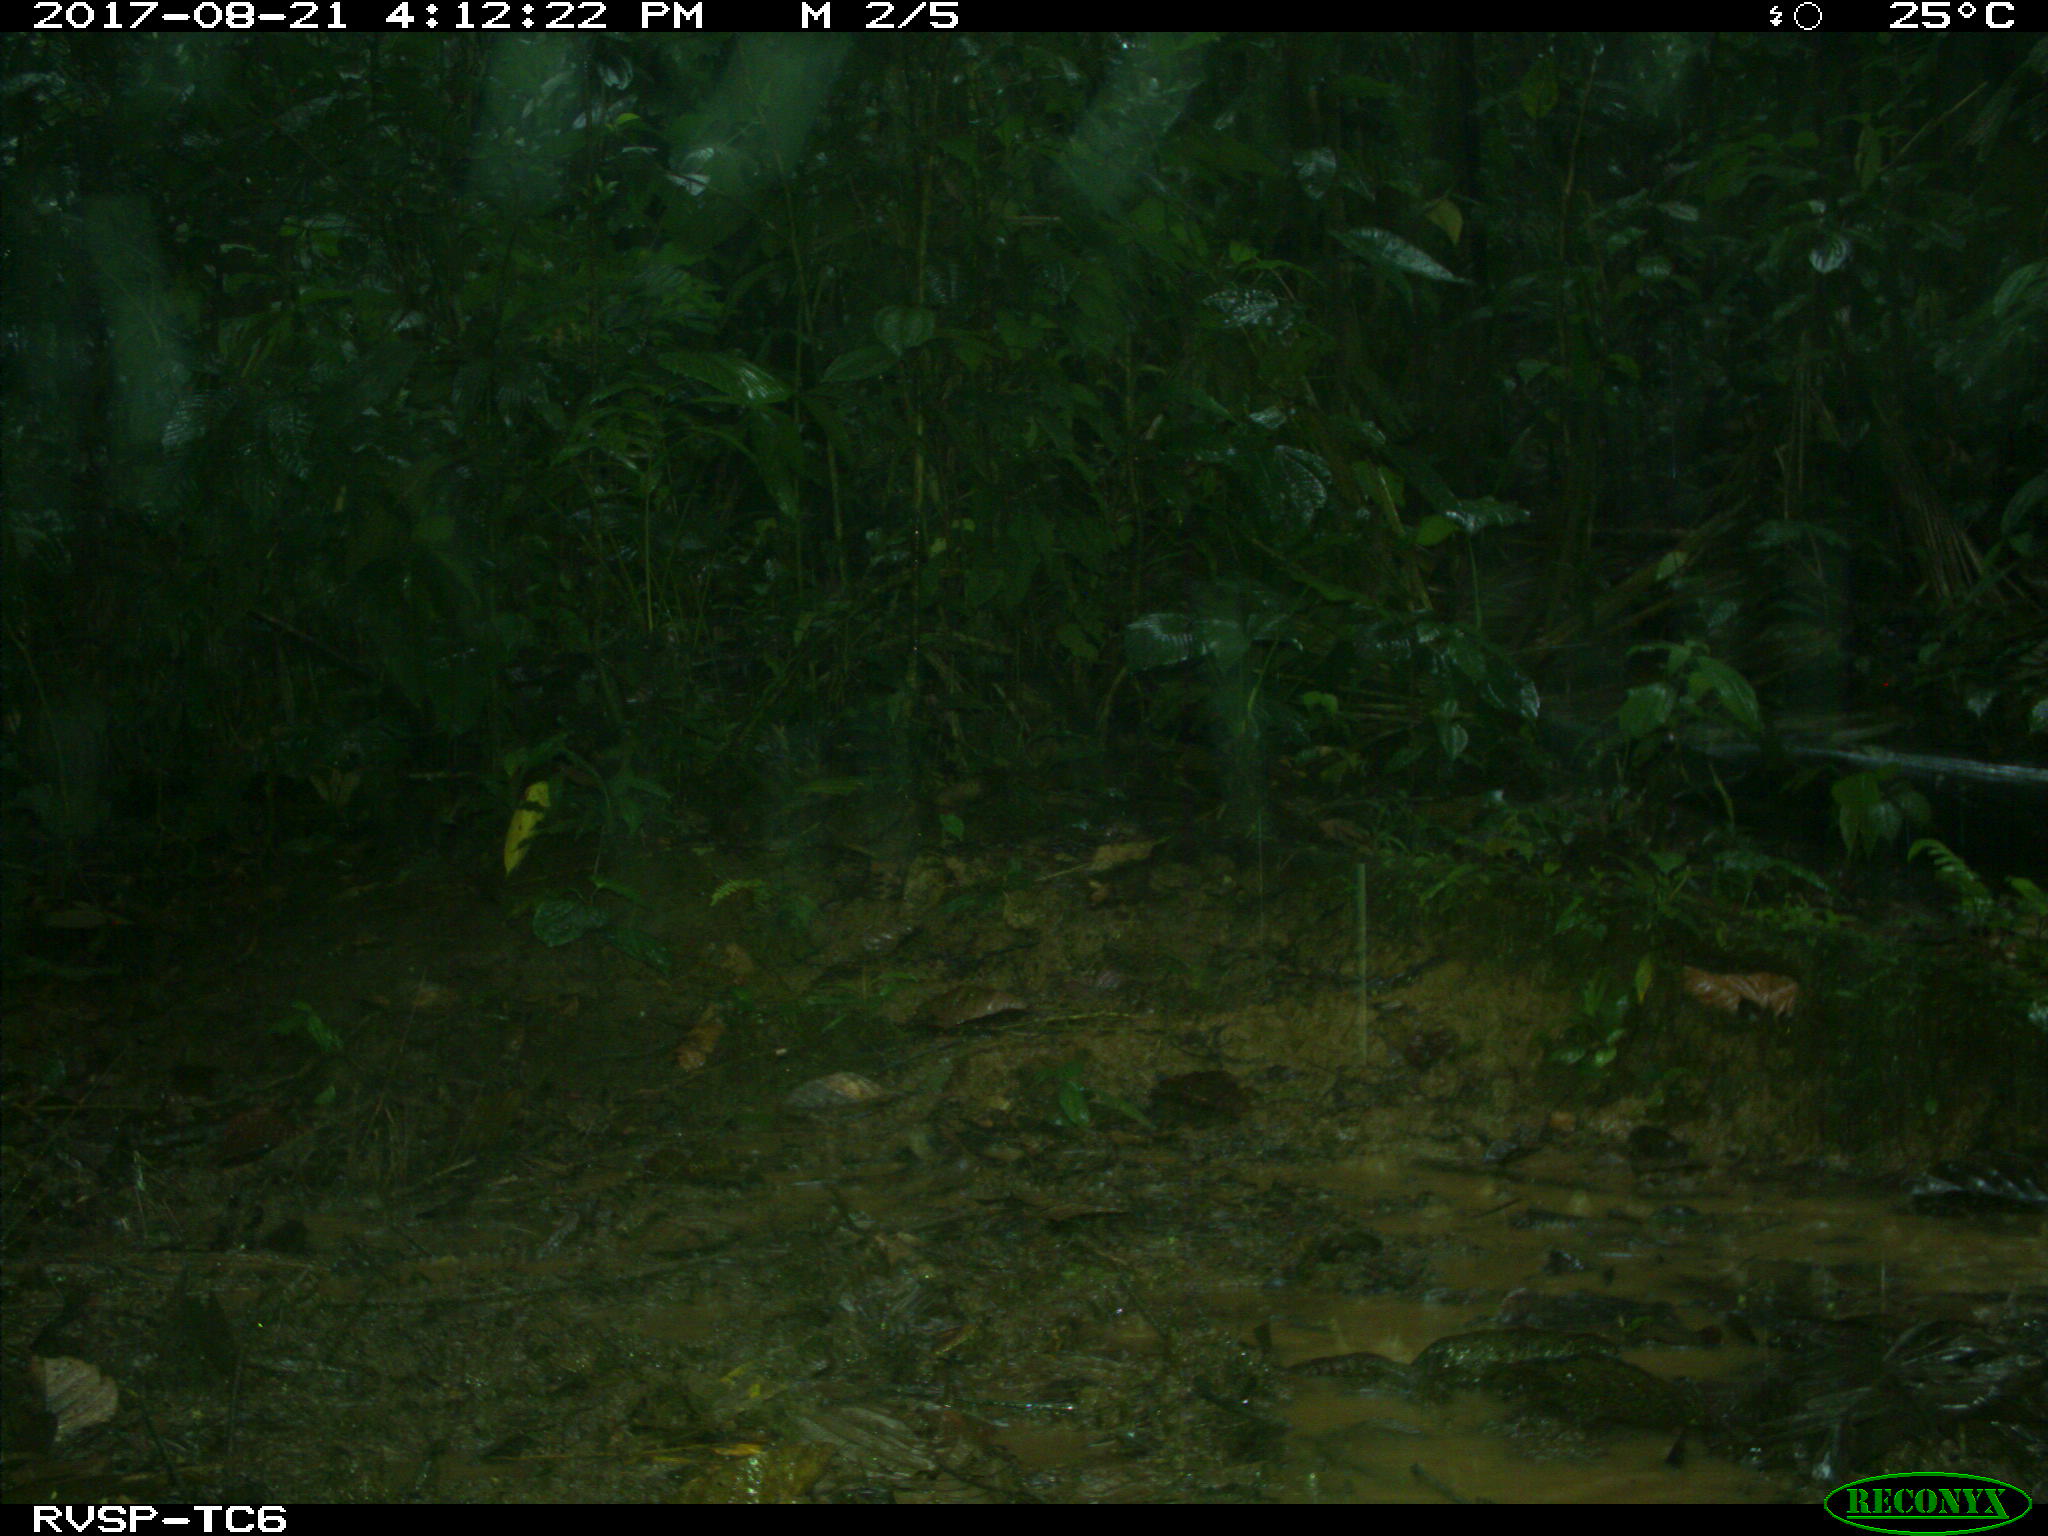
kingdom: Animalia
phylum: Chordata
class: Mammalia
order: Artiodactyla
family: Tayassuidae
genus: Tayassu
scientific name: Tayassu pecari
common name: White-lipped peccary
